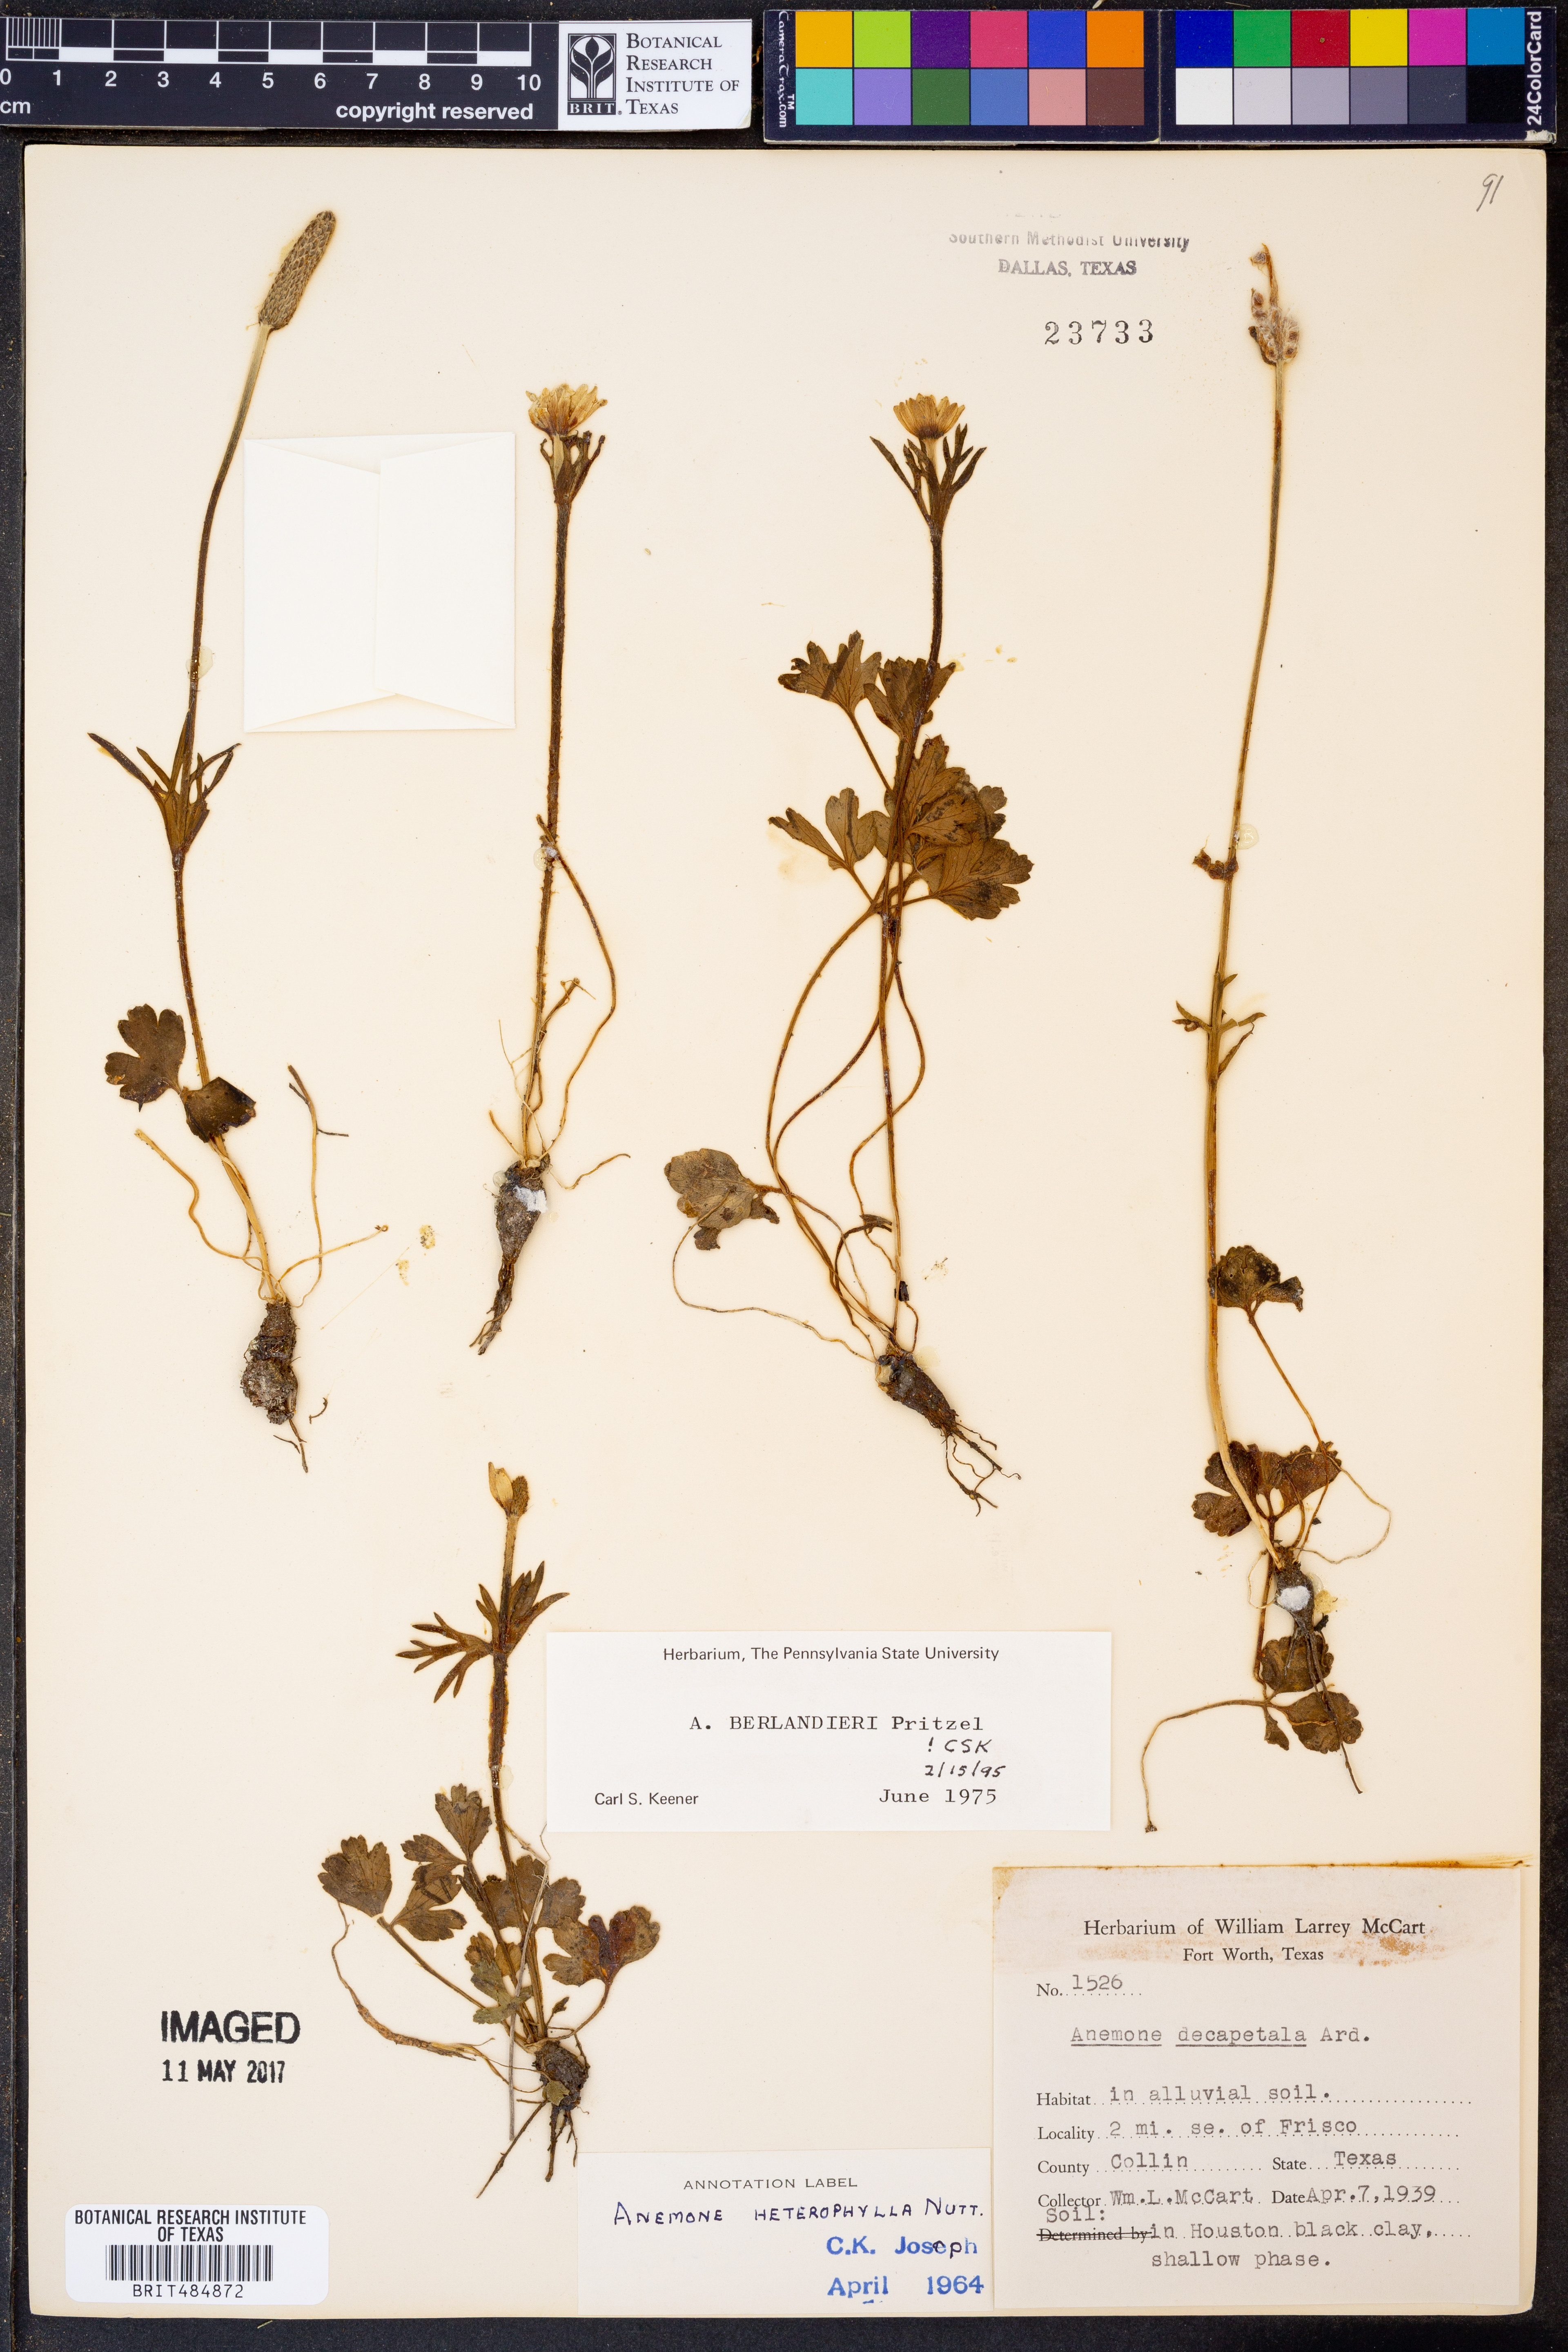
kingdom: Plantae
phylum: Tracheophyta
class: Magnoliopsida
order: Ranunculales
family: Ranunculaceae
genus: Anemone
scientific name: Anemone berlandieri
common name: Ten-petal anemone
